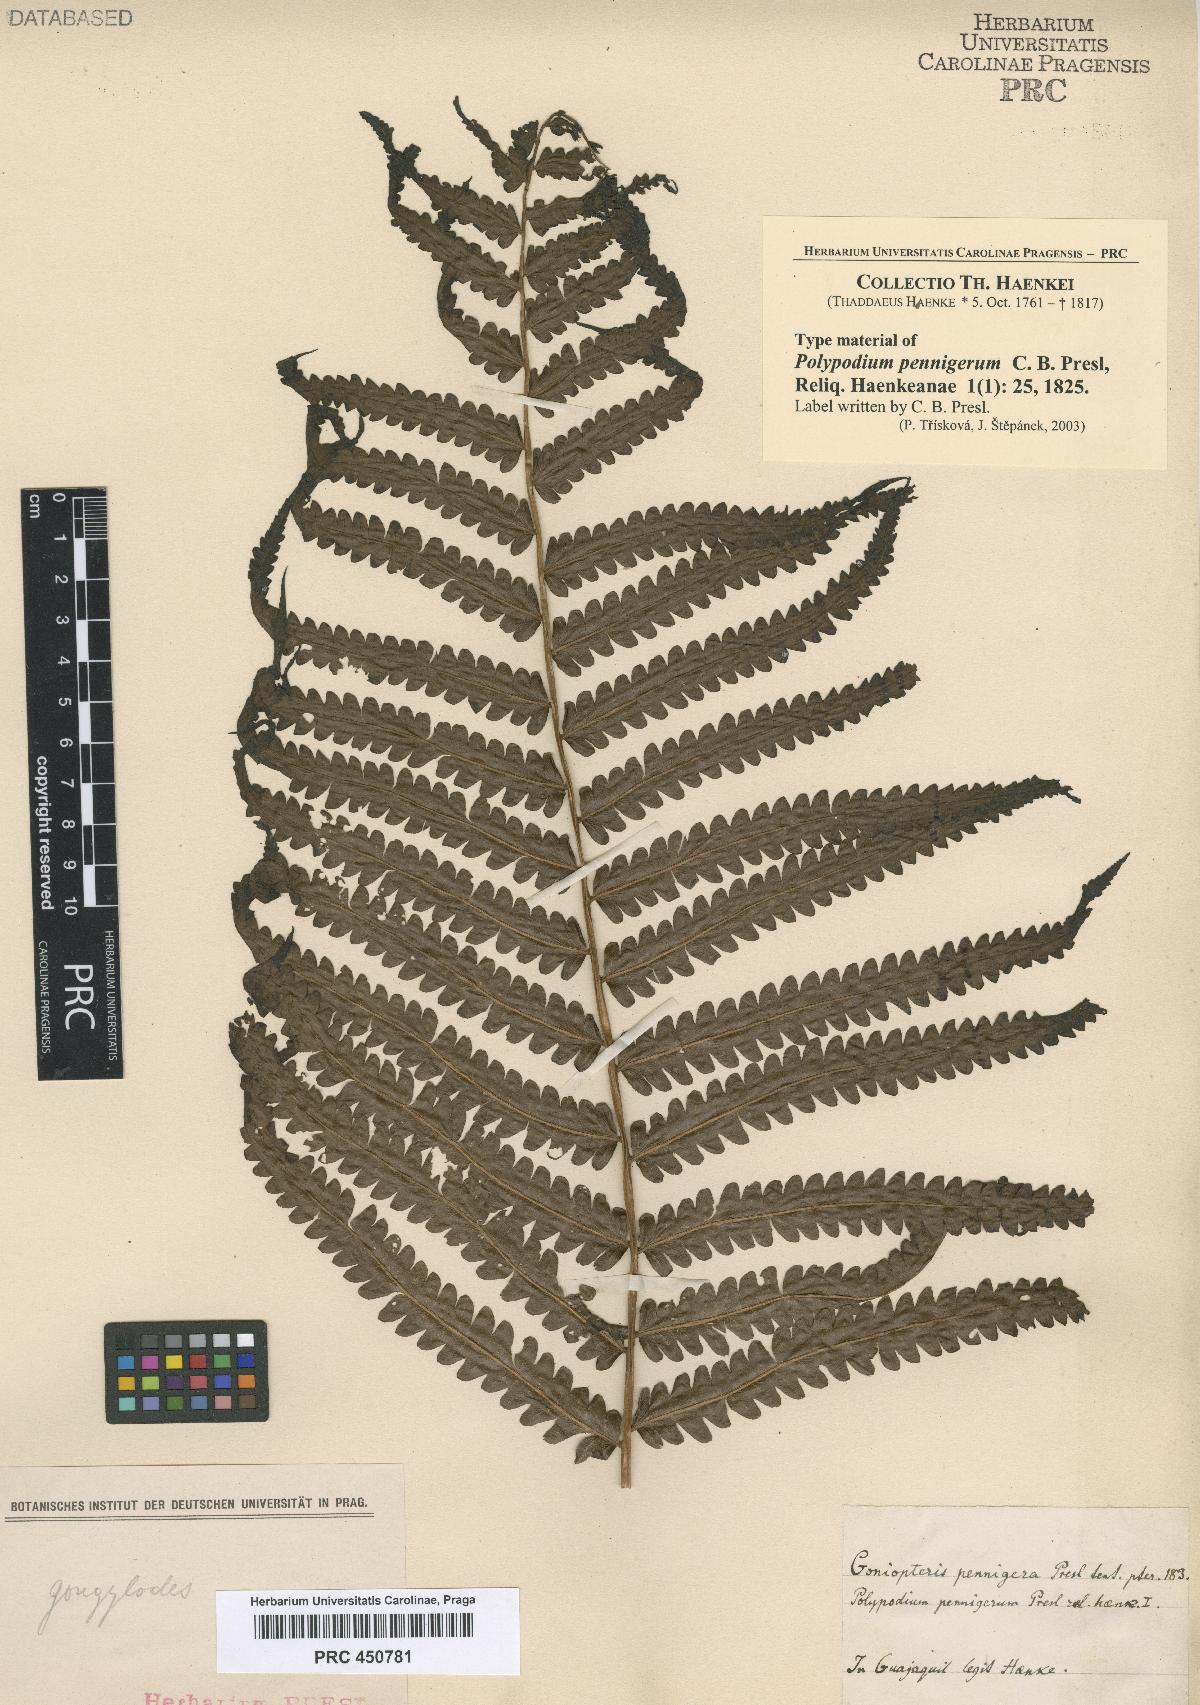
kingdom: Plantae
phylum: Tracheophyta
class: Polypodiopsida
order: Polypodiales
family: Thelypteridaceae
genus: Cyclosorus
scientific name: Cyclosorus interruptus
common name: Neke fern
